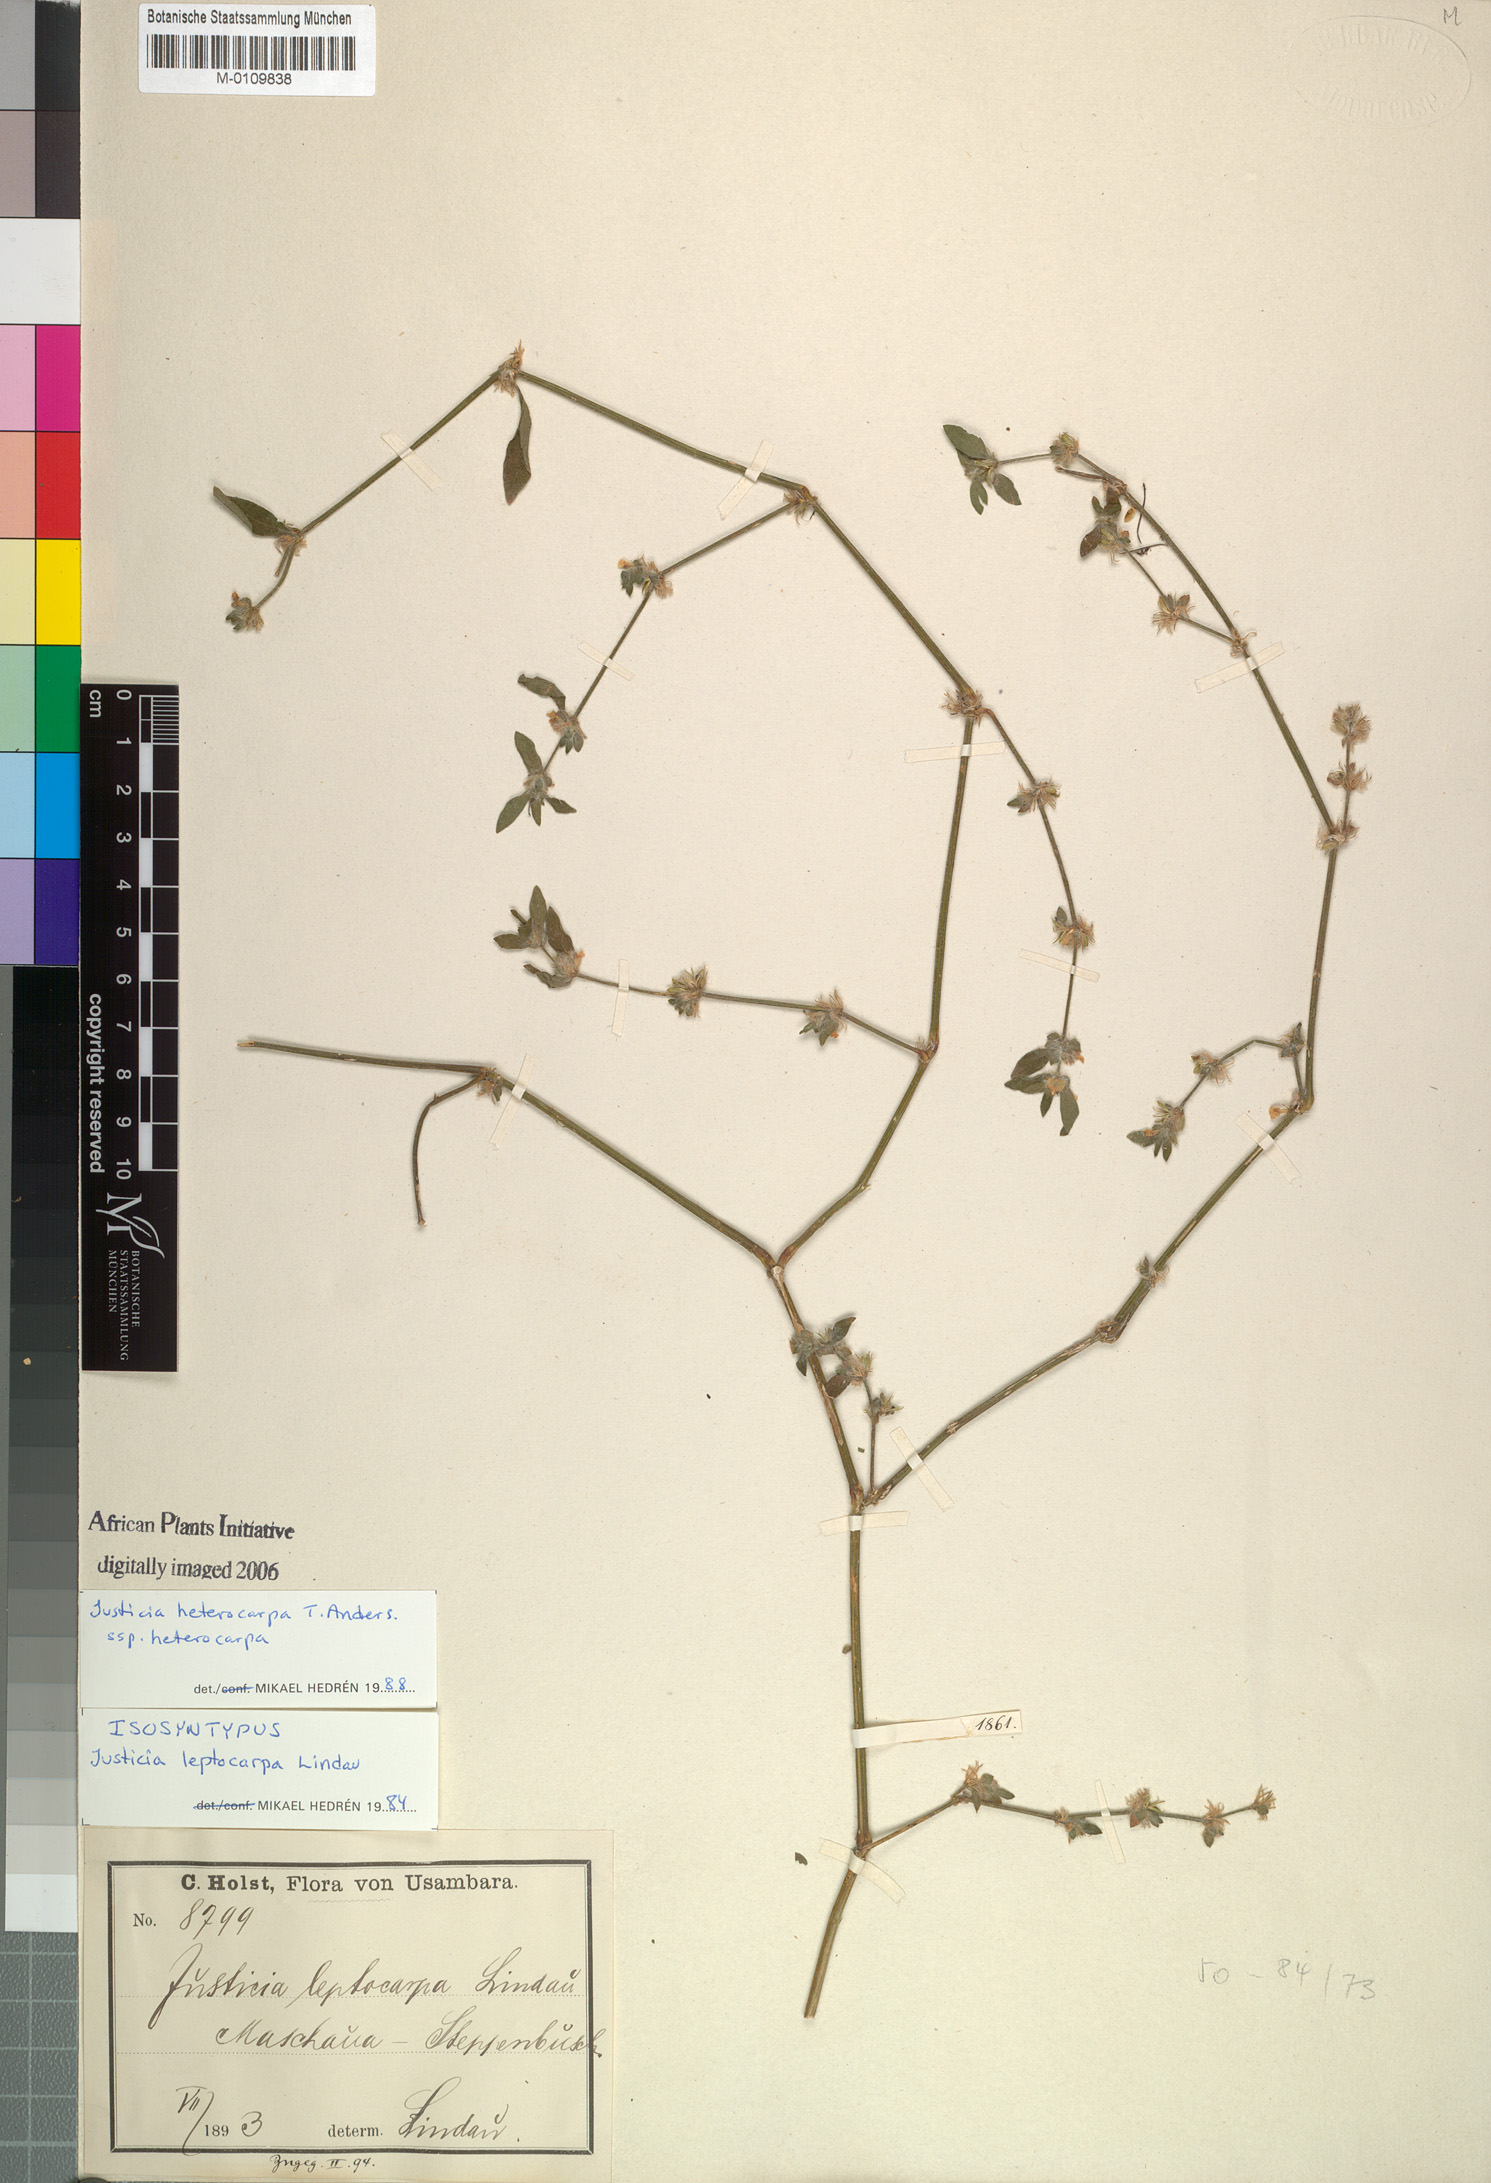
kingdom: Plantae
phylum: Tracheophyta
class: Magnoliopsida
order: Lamiales
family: Acanthaceae
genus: Justicia
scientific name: Justicia heterocarpa
